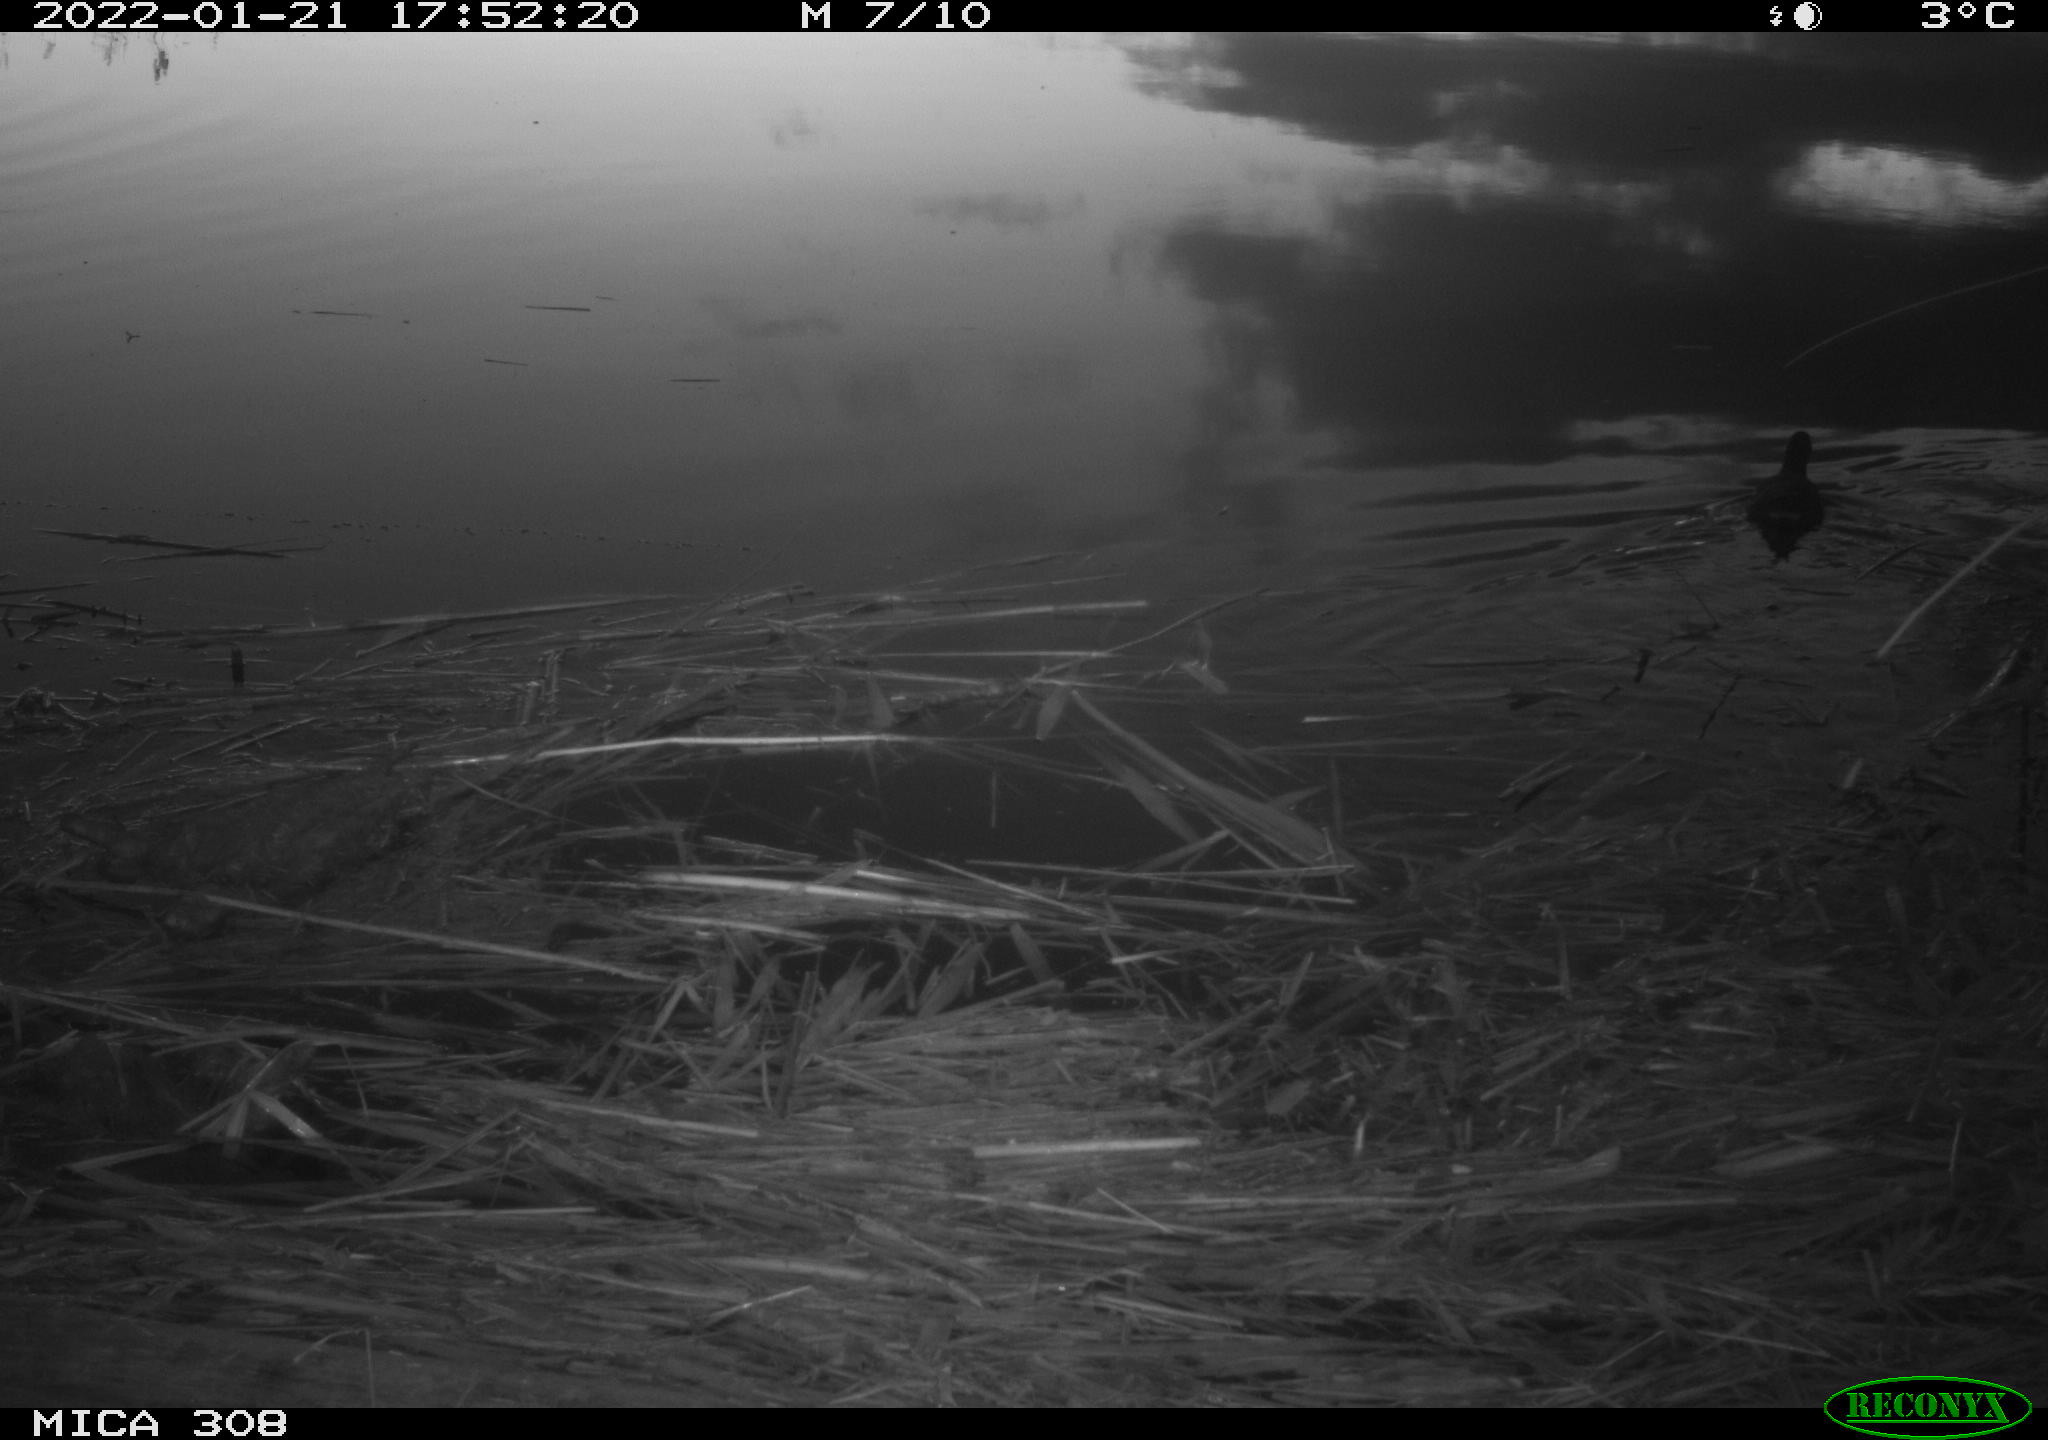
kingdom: Animalia
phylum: Chordata
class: Aves
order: Gruiformes
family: Rallidae
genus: Gallinula
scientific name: Gallinula chloropus
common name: Common moorhen
